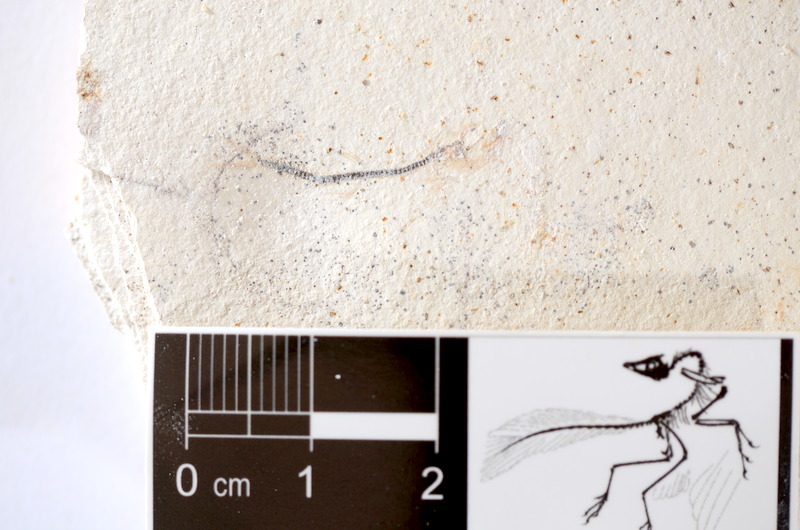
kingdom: Animalia
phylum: Chordata
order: Salmoniformes
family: Orthogonikleithridae
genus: Orthogonikleithrus
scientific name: Orthogonikleithrus hoelli
